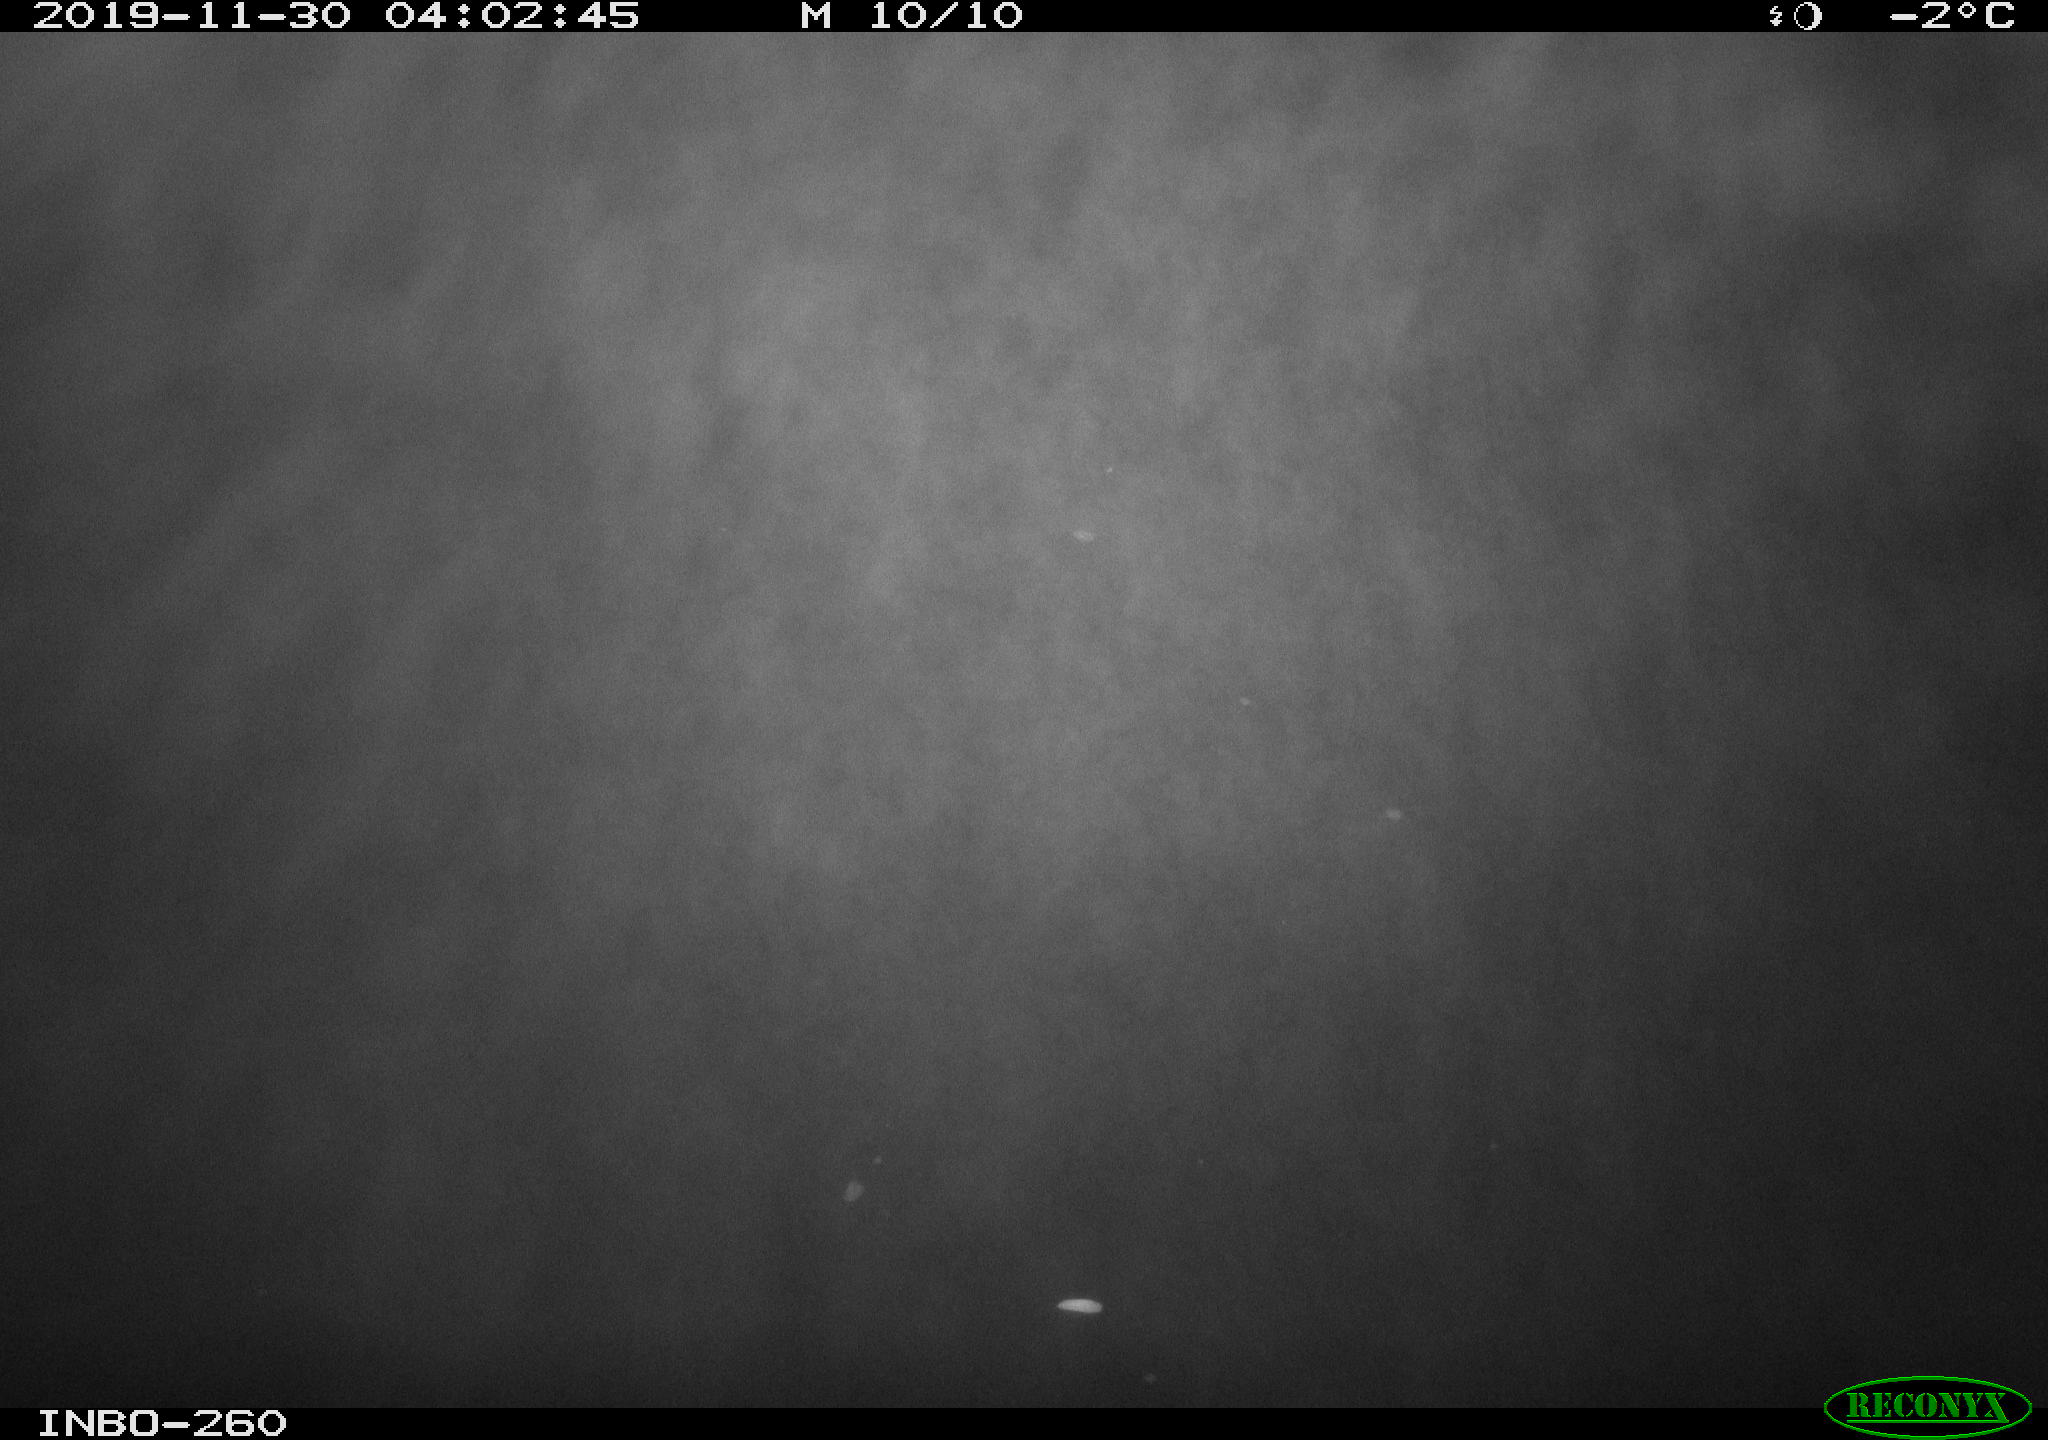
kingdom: Animalia
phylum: Chordata
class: Aves
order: Anseriformes
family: Anatidae
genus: Anas
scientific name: Anas platyrhynchos
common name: Mallard
